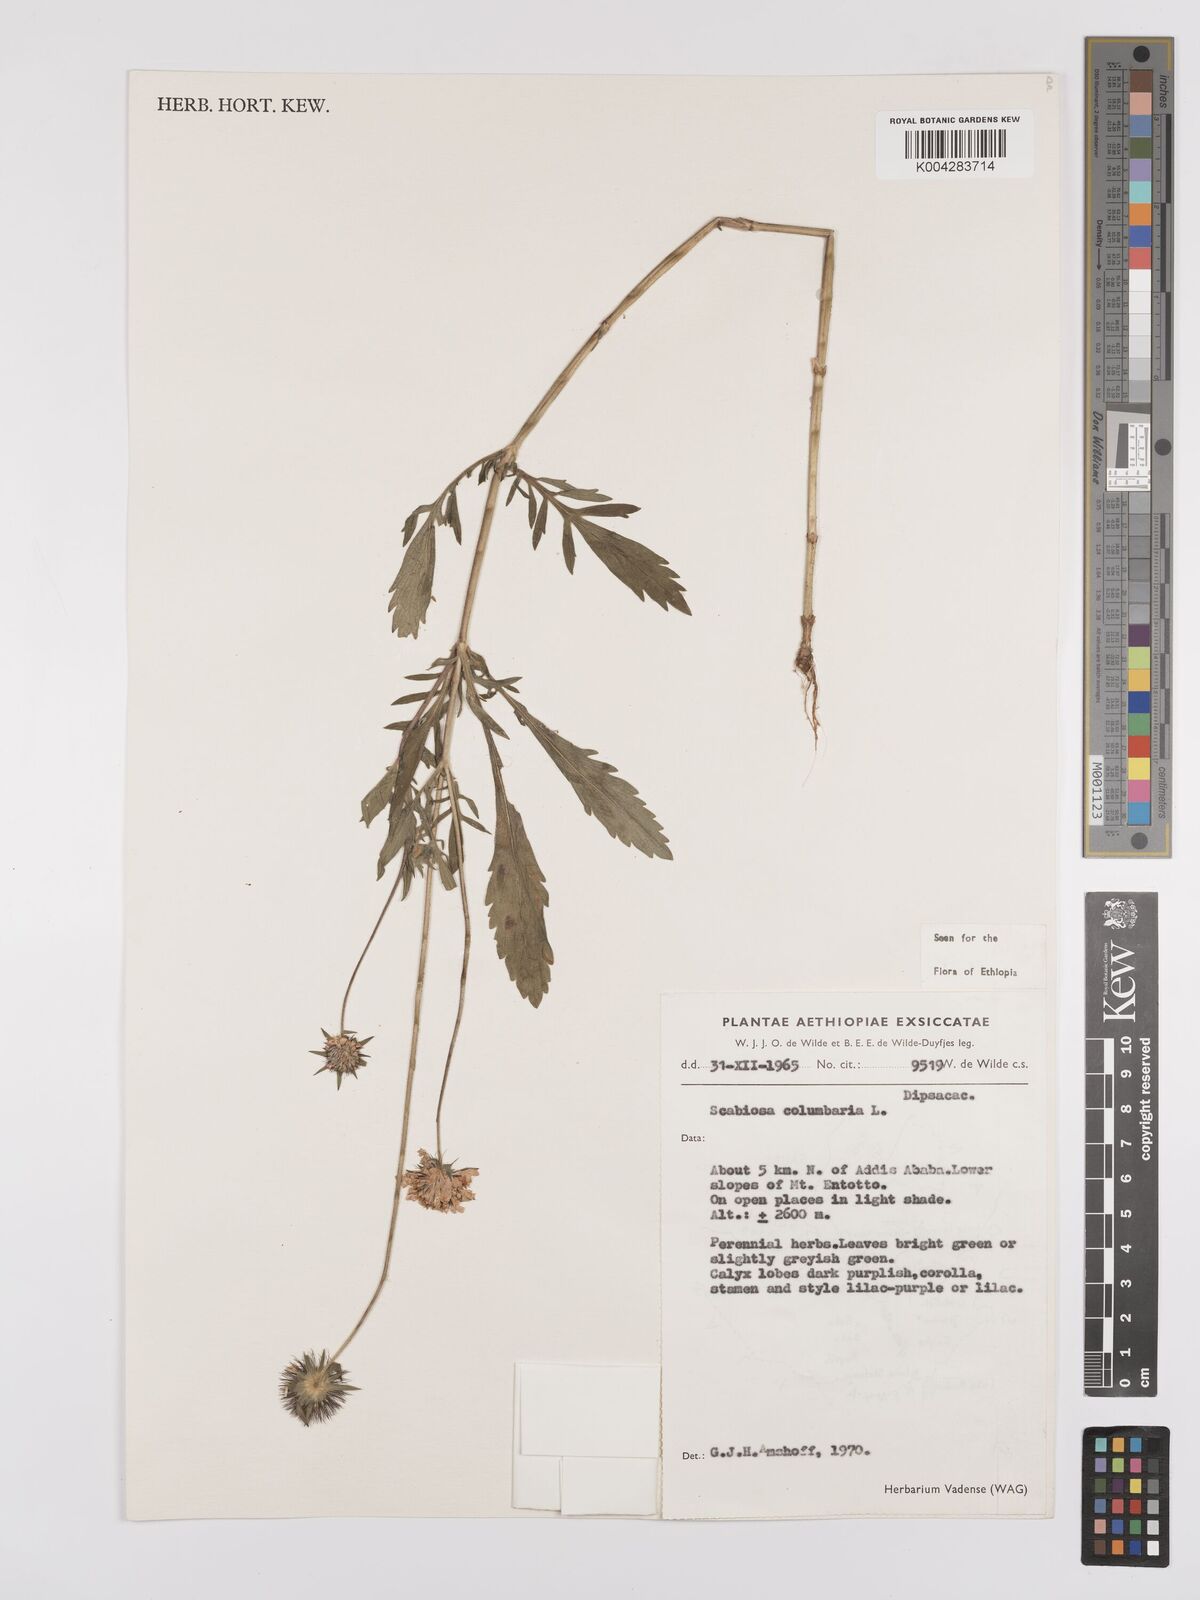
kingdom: Plantae
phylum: Tracheophyta
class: Magnoliopsida
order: Dipsacales
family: Caprifoliaceae
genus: Scabiosa
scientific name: Scabiosa columbaria
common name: Small scabious
